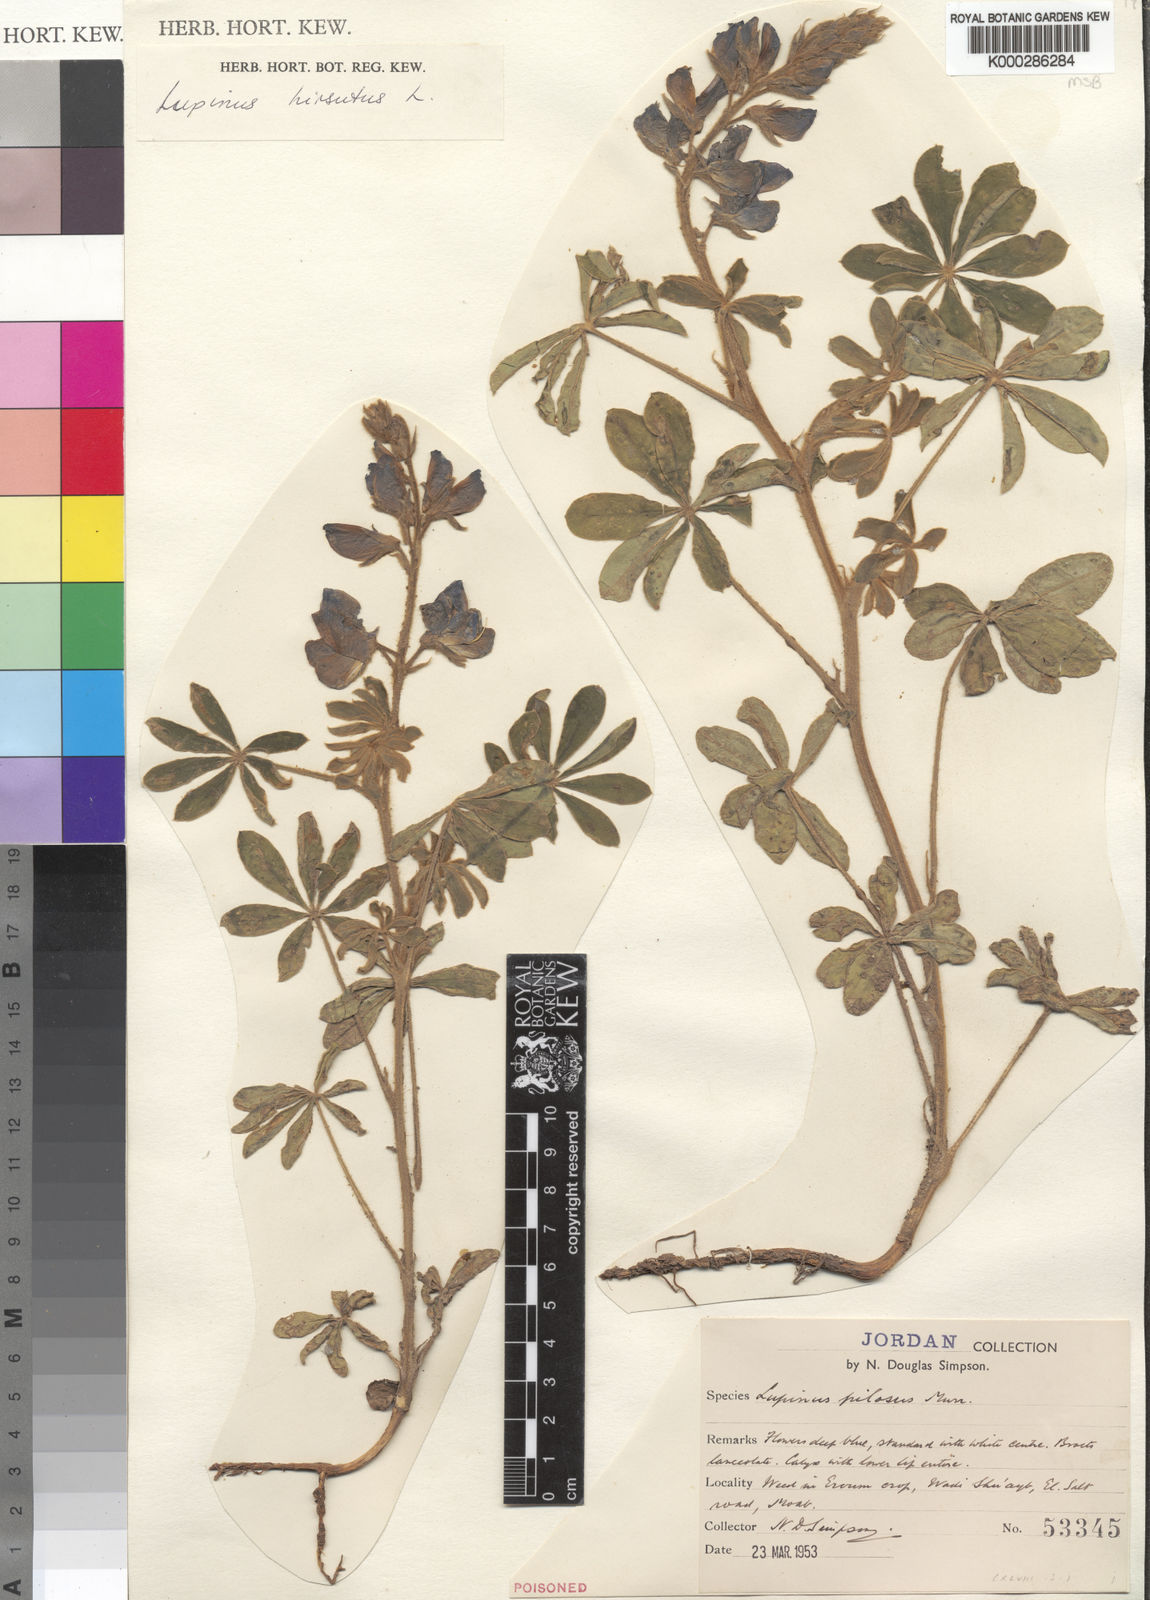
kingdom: Plantae
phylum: Tracheophyta
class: Magnoliopsida
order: Fabales
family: Fabaceae
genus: Lupinus
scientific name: Lupinus
